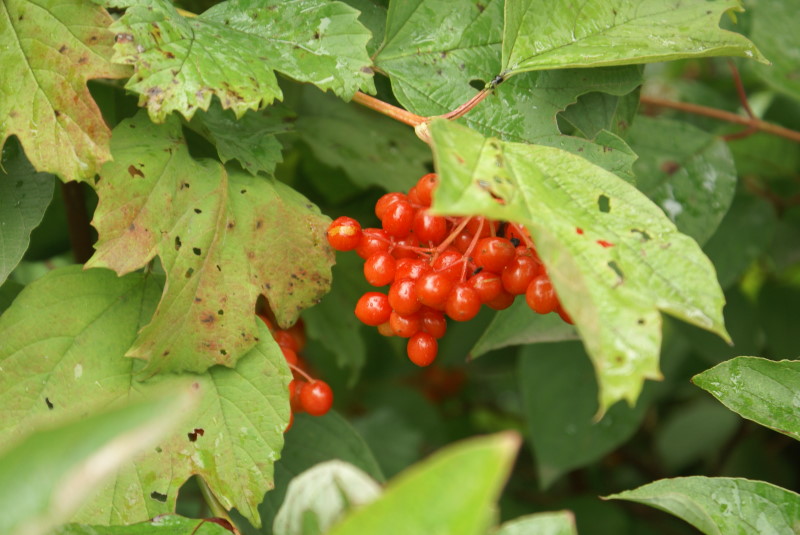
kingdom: Plantae
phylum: Tracheophyta
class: Magnoliopsida
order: Dipsacales
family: Viburnaceae
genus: Viburnum
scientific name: Viburnum opulus
